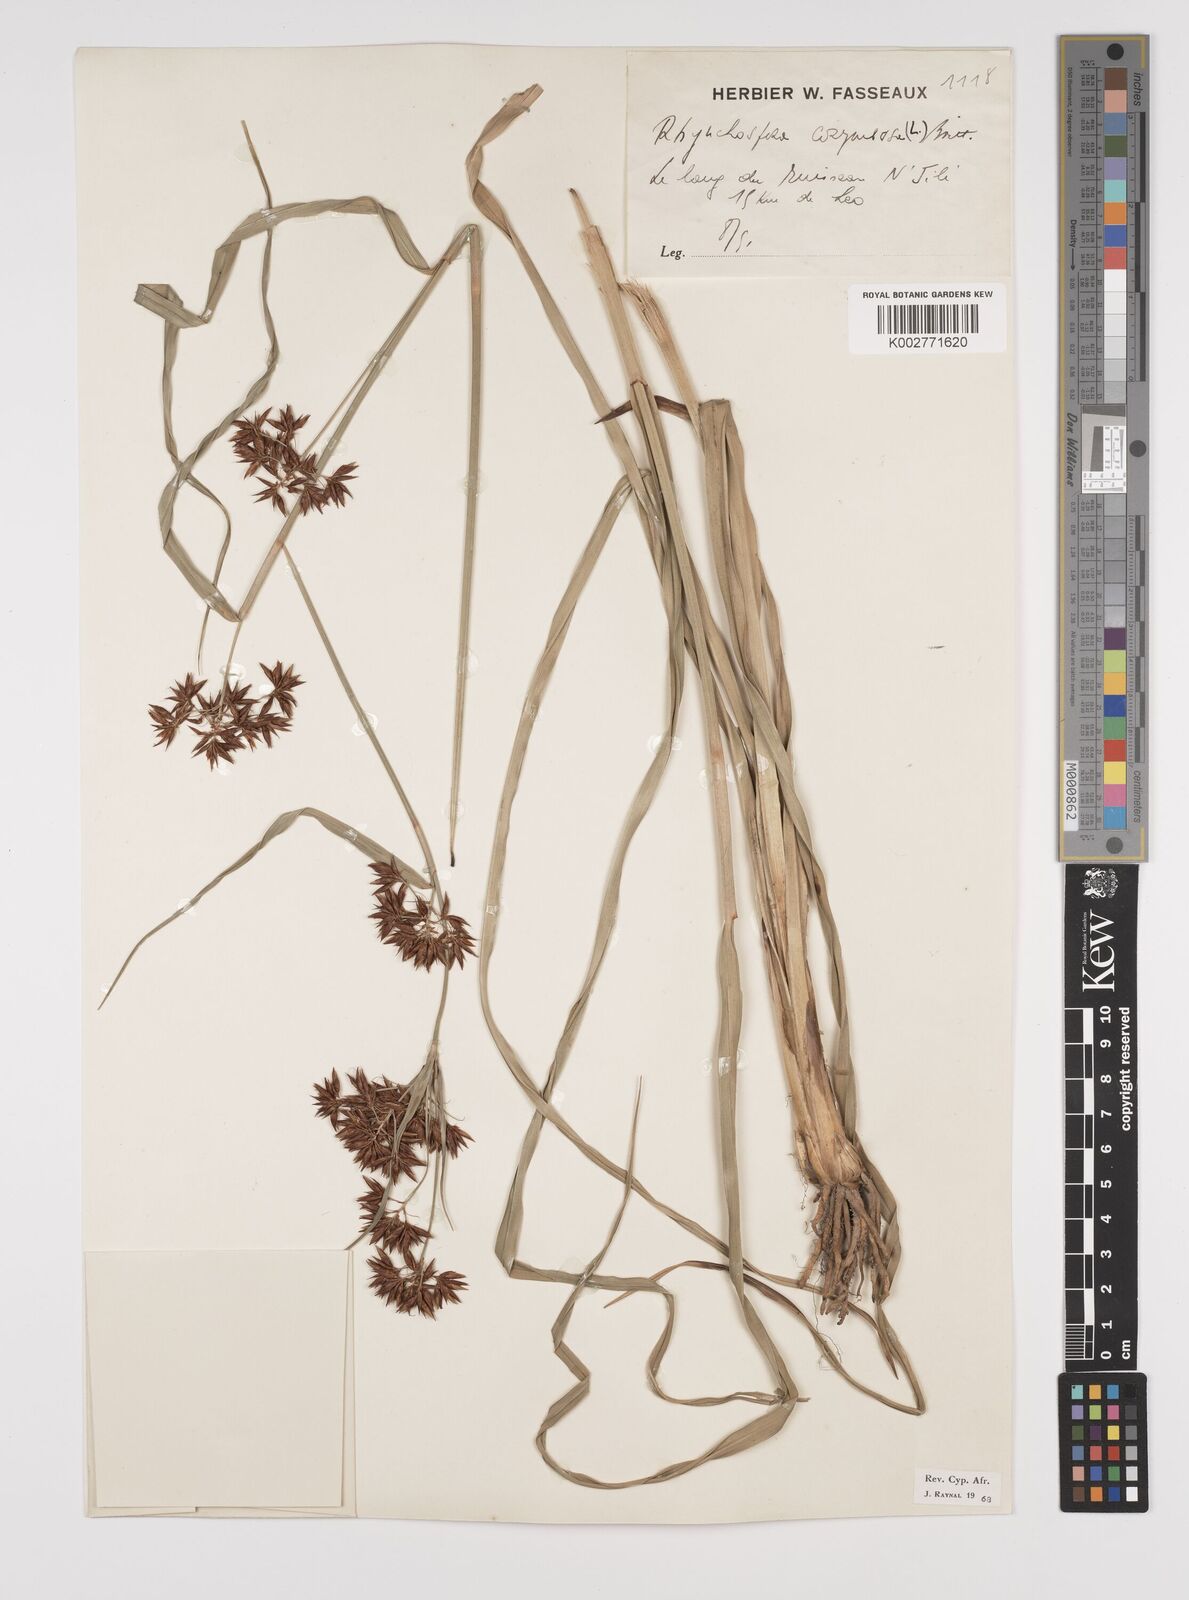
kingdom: Plantae
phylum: Tracheophyta
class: Liliopsida
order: Poales
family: Cyperaceae
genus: Rhynchospora
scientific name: Rhynchospora corymbosa
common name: Golden beak sedge
